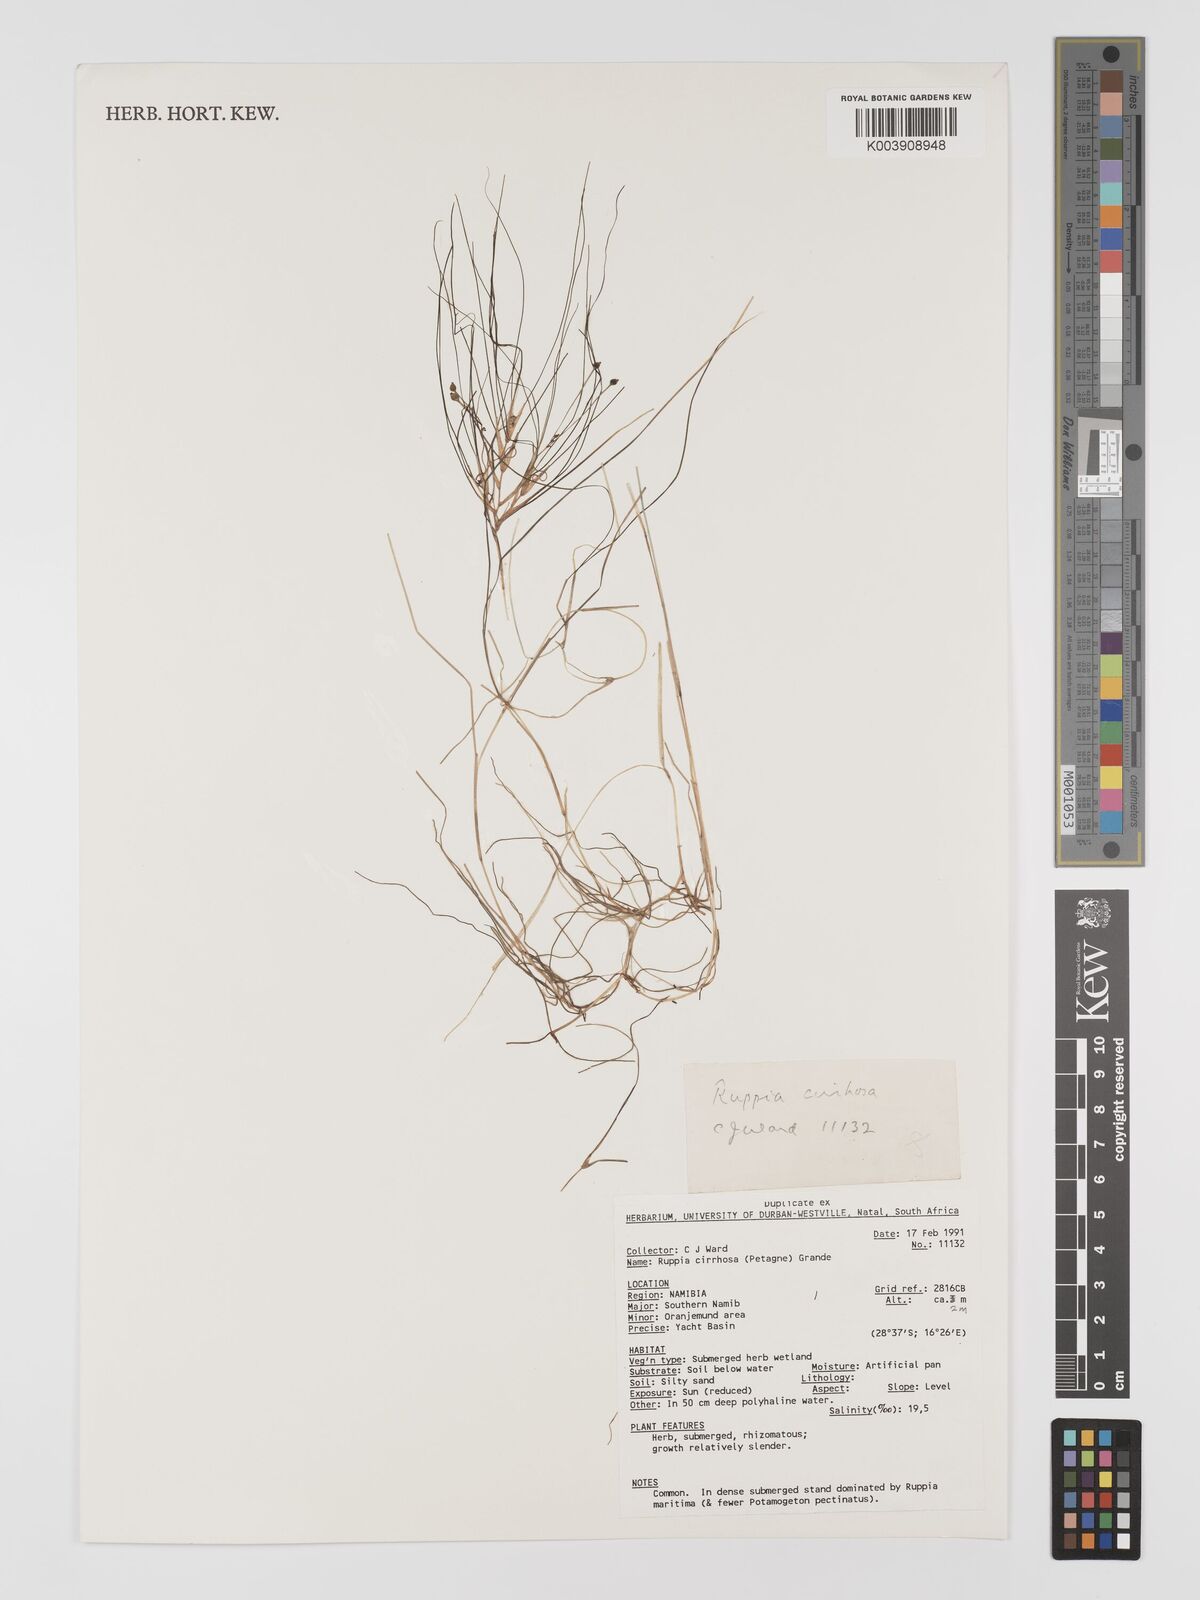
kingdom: Plantae
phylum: Tracheophyta
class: Liliopsida
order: Alismatales
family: Ruppiaceae
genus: Ruppia
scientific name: Ruppia cirrhosa
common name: Spiral tasselweed
